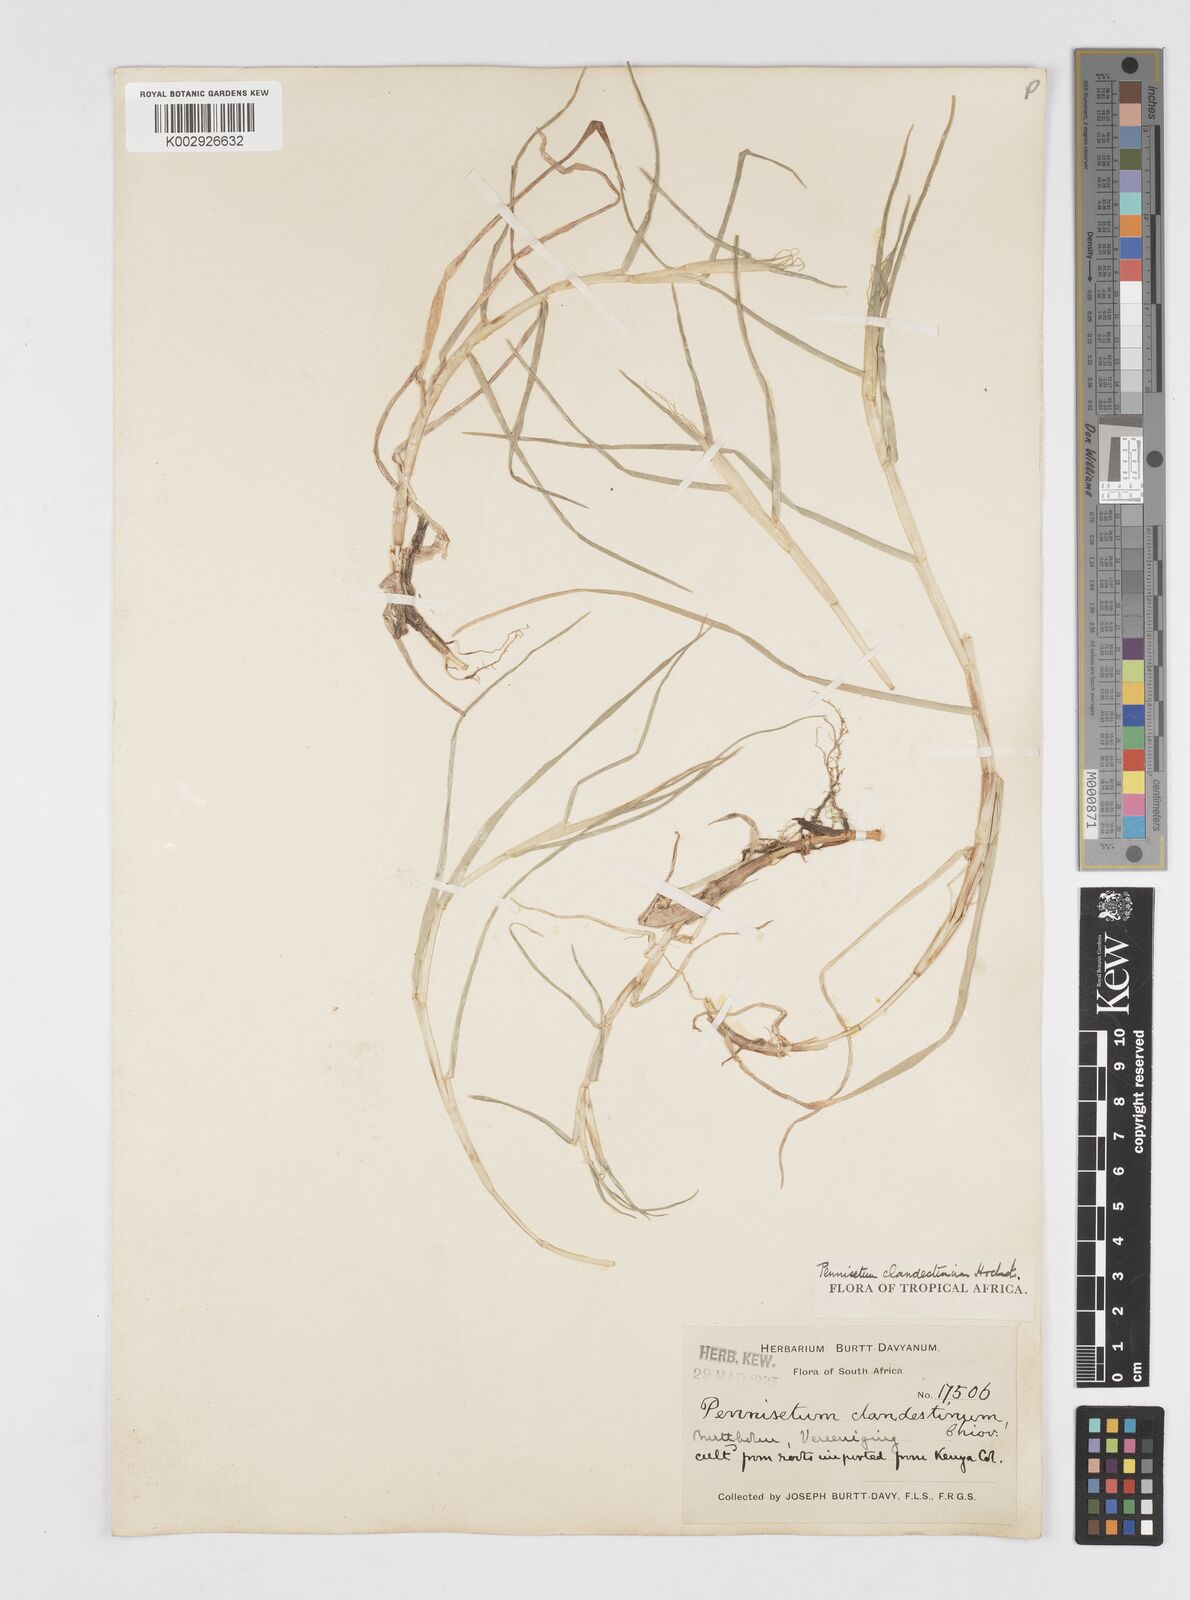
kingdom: Plantae
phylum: Tracheophyta
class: Liliopsida
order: Poales
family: Poaceae
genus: Cenchrus
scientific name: Cenchrus clandestinus
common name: Kikuyugrass
